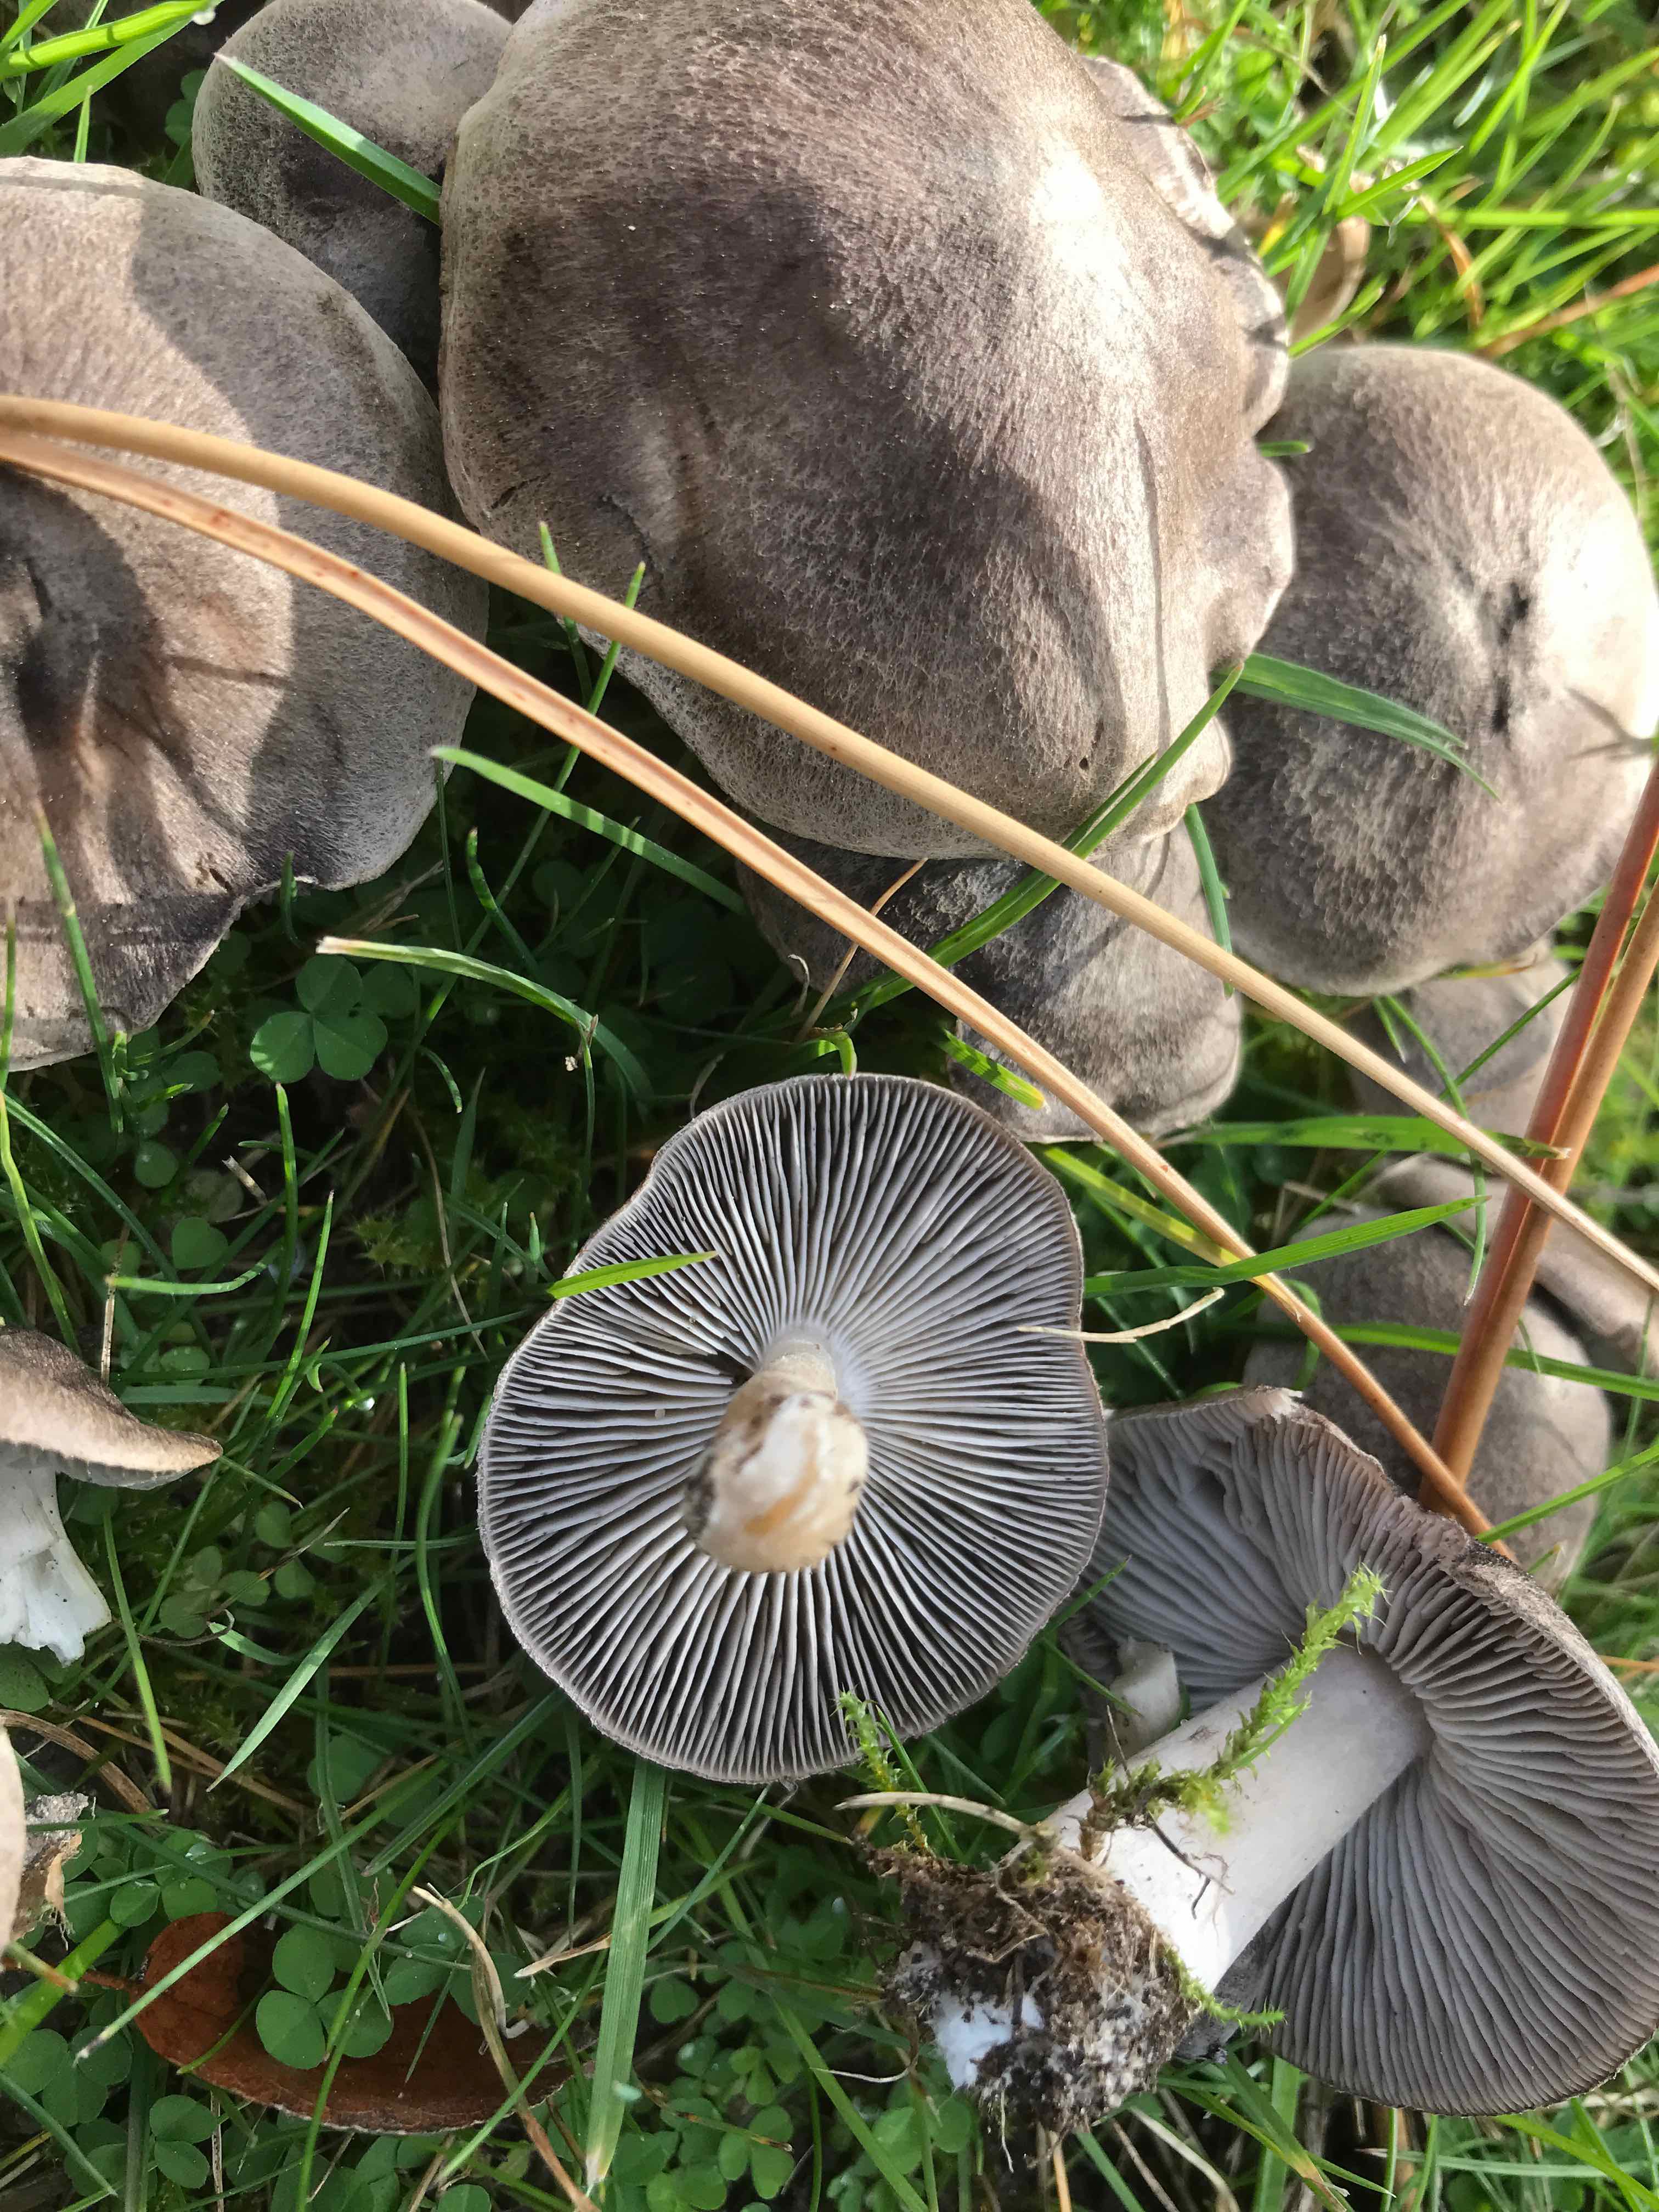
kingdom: Fungi
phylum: Basidiomycota
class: Agaricomycetes
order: Agaricales
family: Tricholomataceae
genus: Tricholoma
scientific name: Tricholoma terreum
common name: jordfarvet ridderhat
